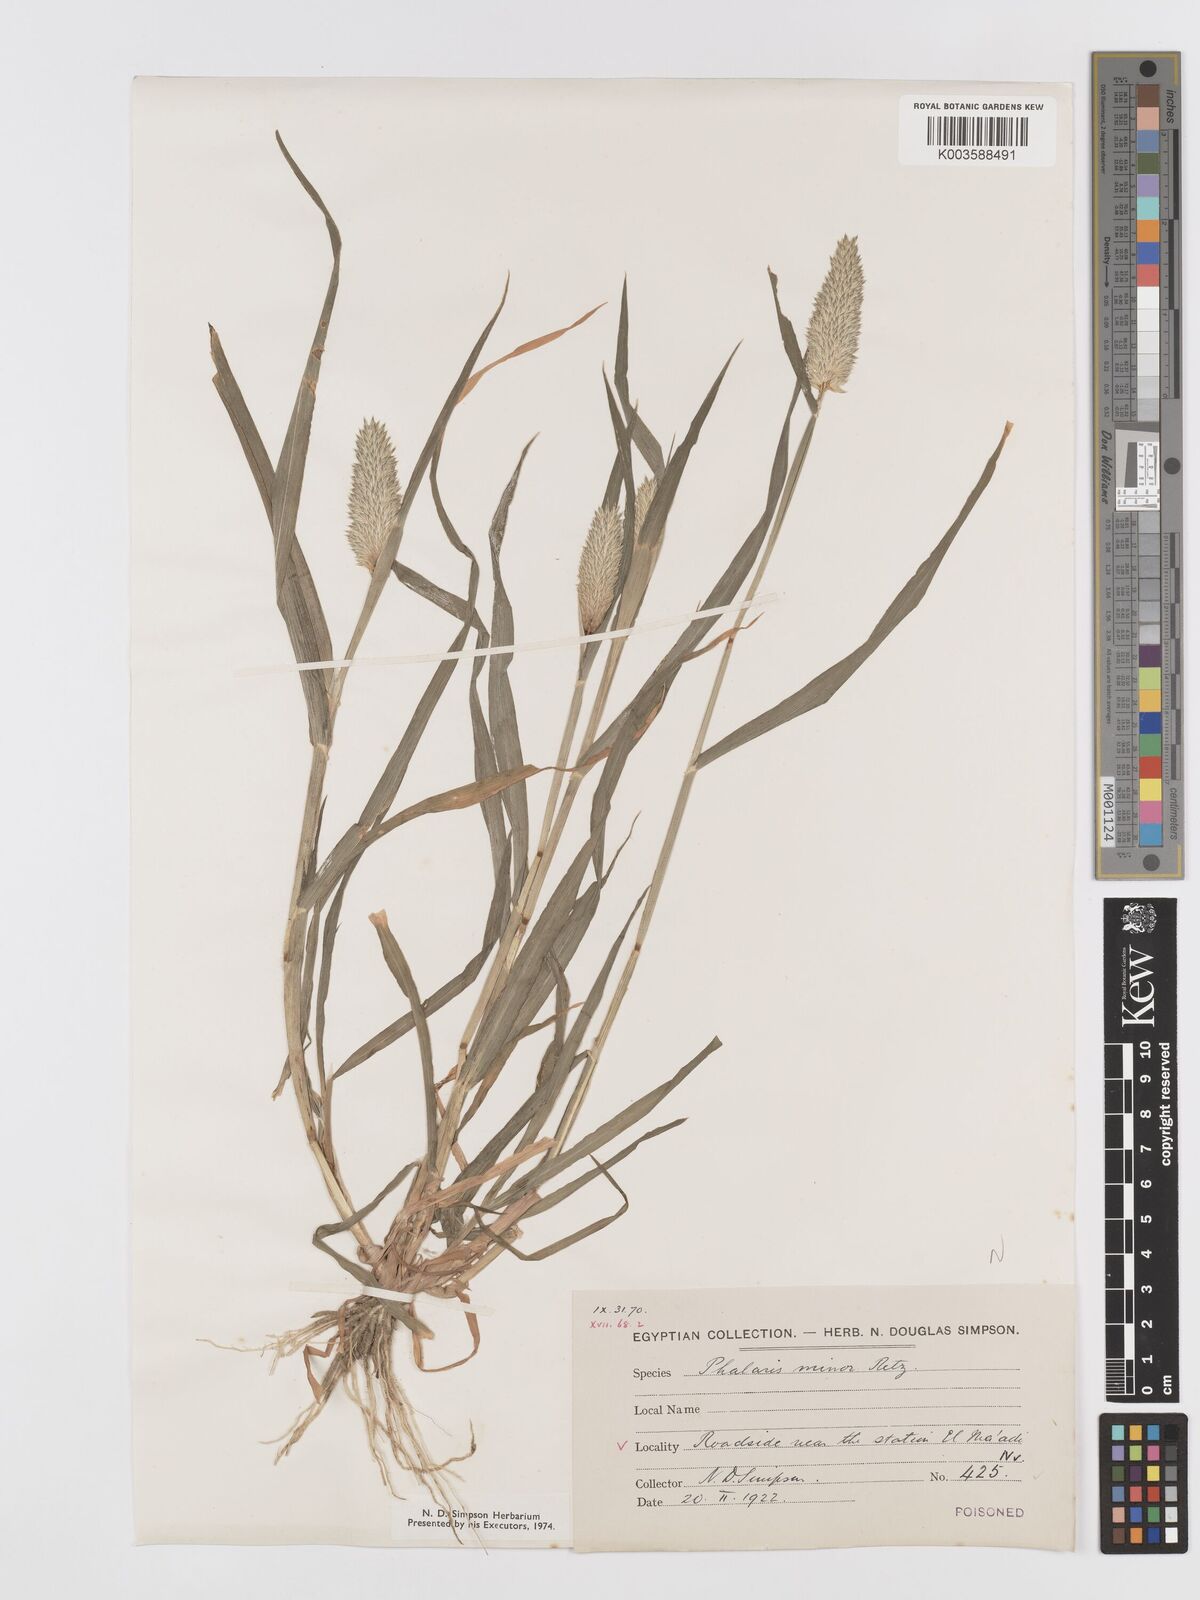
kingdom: Plantae
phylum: Tracheophyta
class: Liliopsida
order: Poales
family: Poaceae
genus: Phalaris
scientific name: Phalaris minor
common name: Littleseed canarygrass
